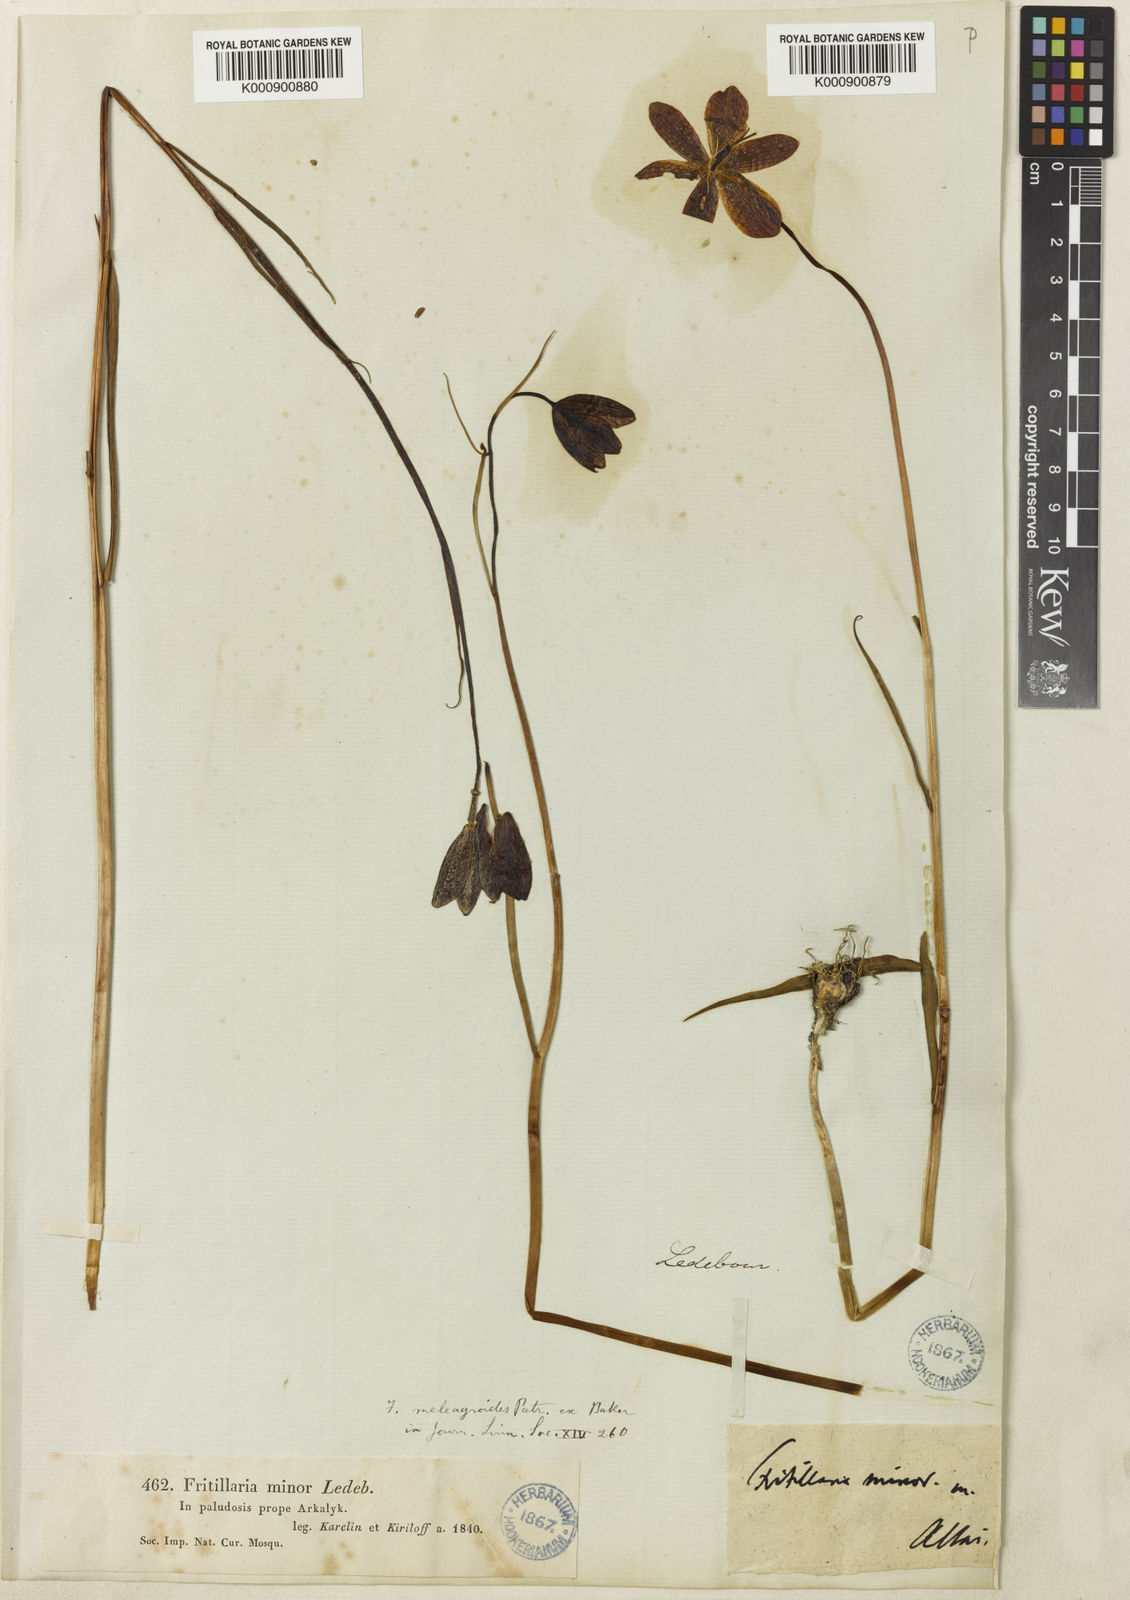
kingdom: Plantae
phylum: Tracheophyta
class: Liliopsida
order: Liliales
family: Liliaceae
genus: Fritillaria
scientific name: Fritillaria meleagroides
